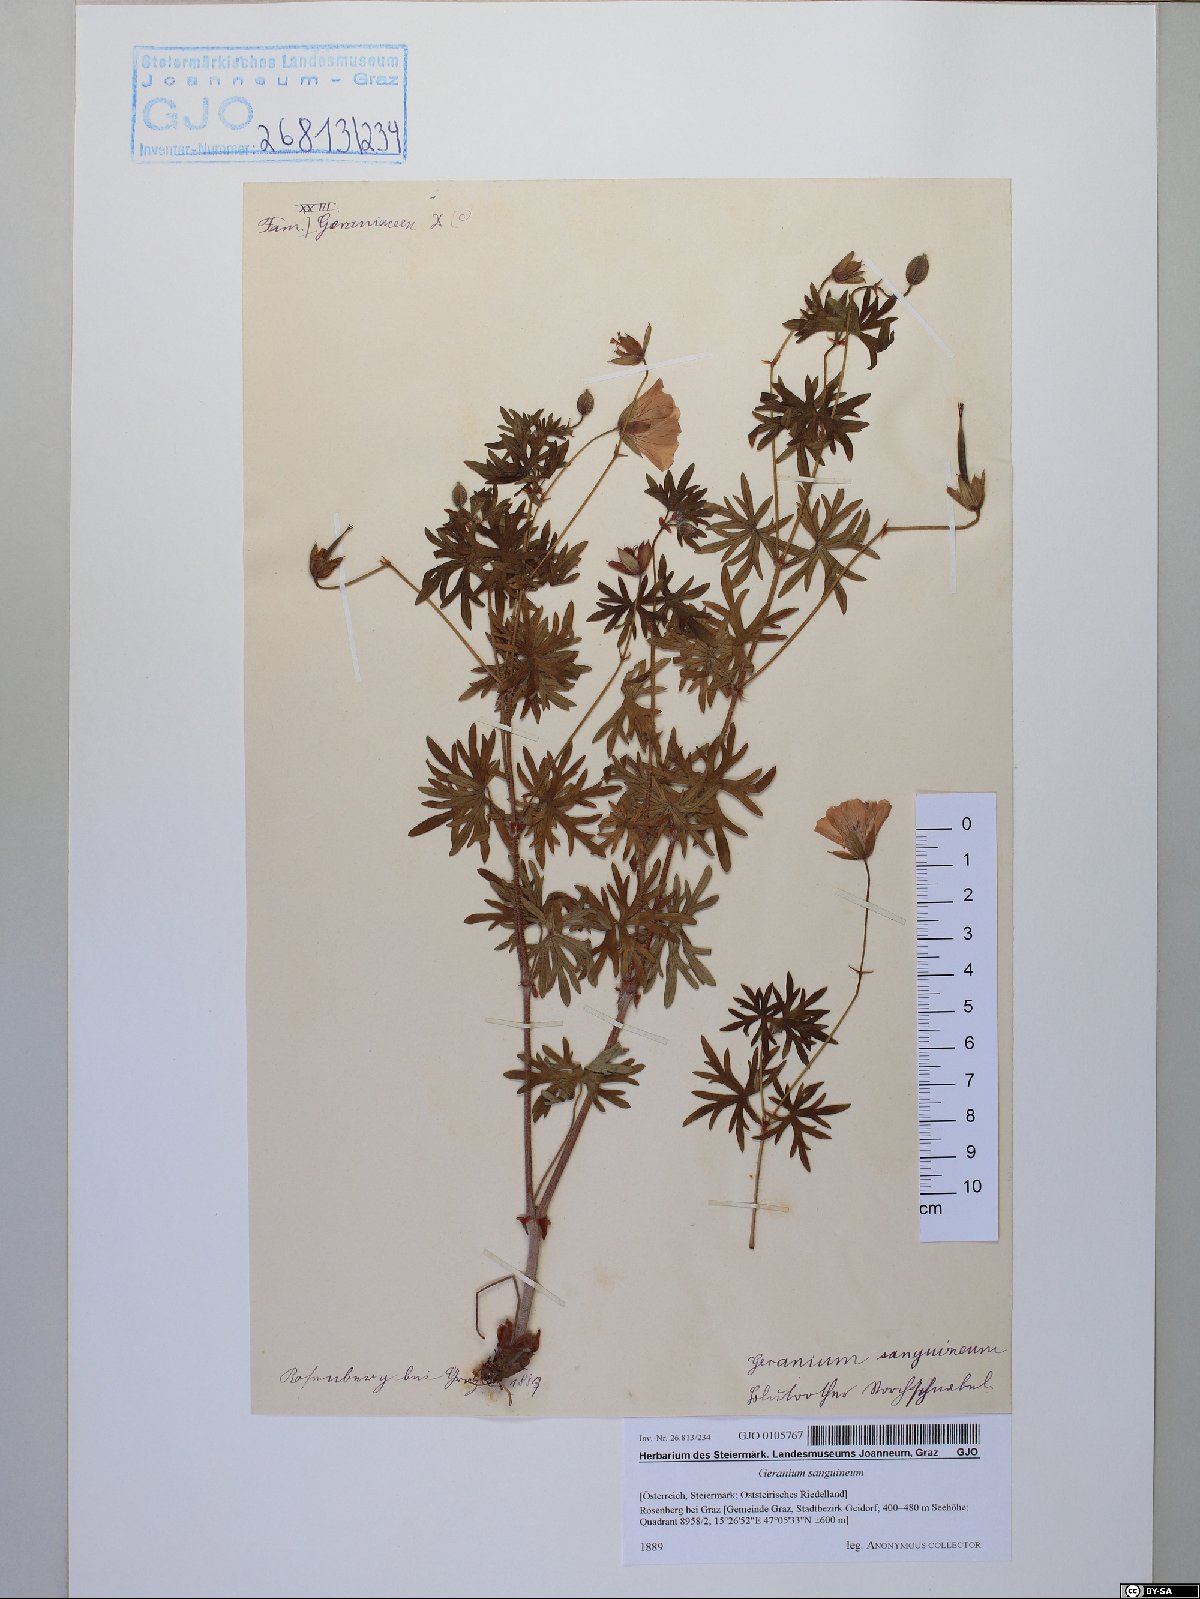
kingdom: Plantae
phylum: Tracheophyta
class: Magnoliopsida
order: Geraniales
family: Geraniaceae
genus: Geranium
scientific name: Geranium sanguineum
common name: Bloody crane's-bill
